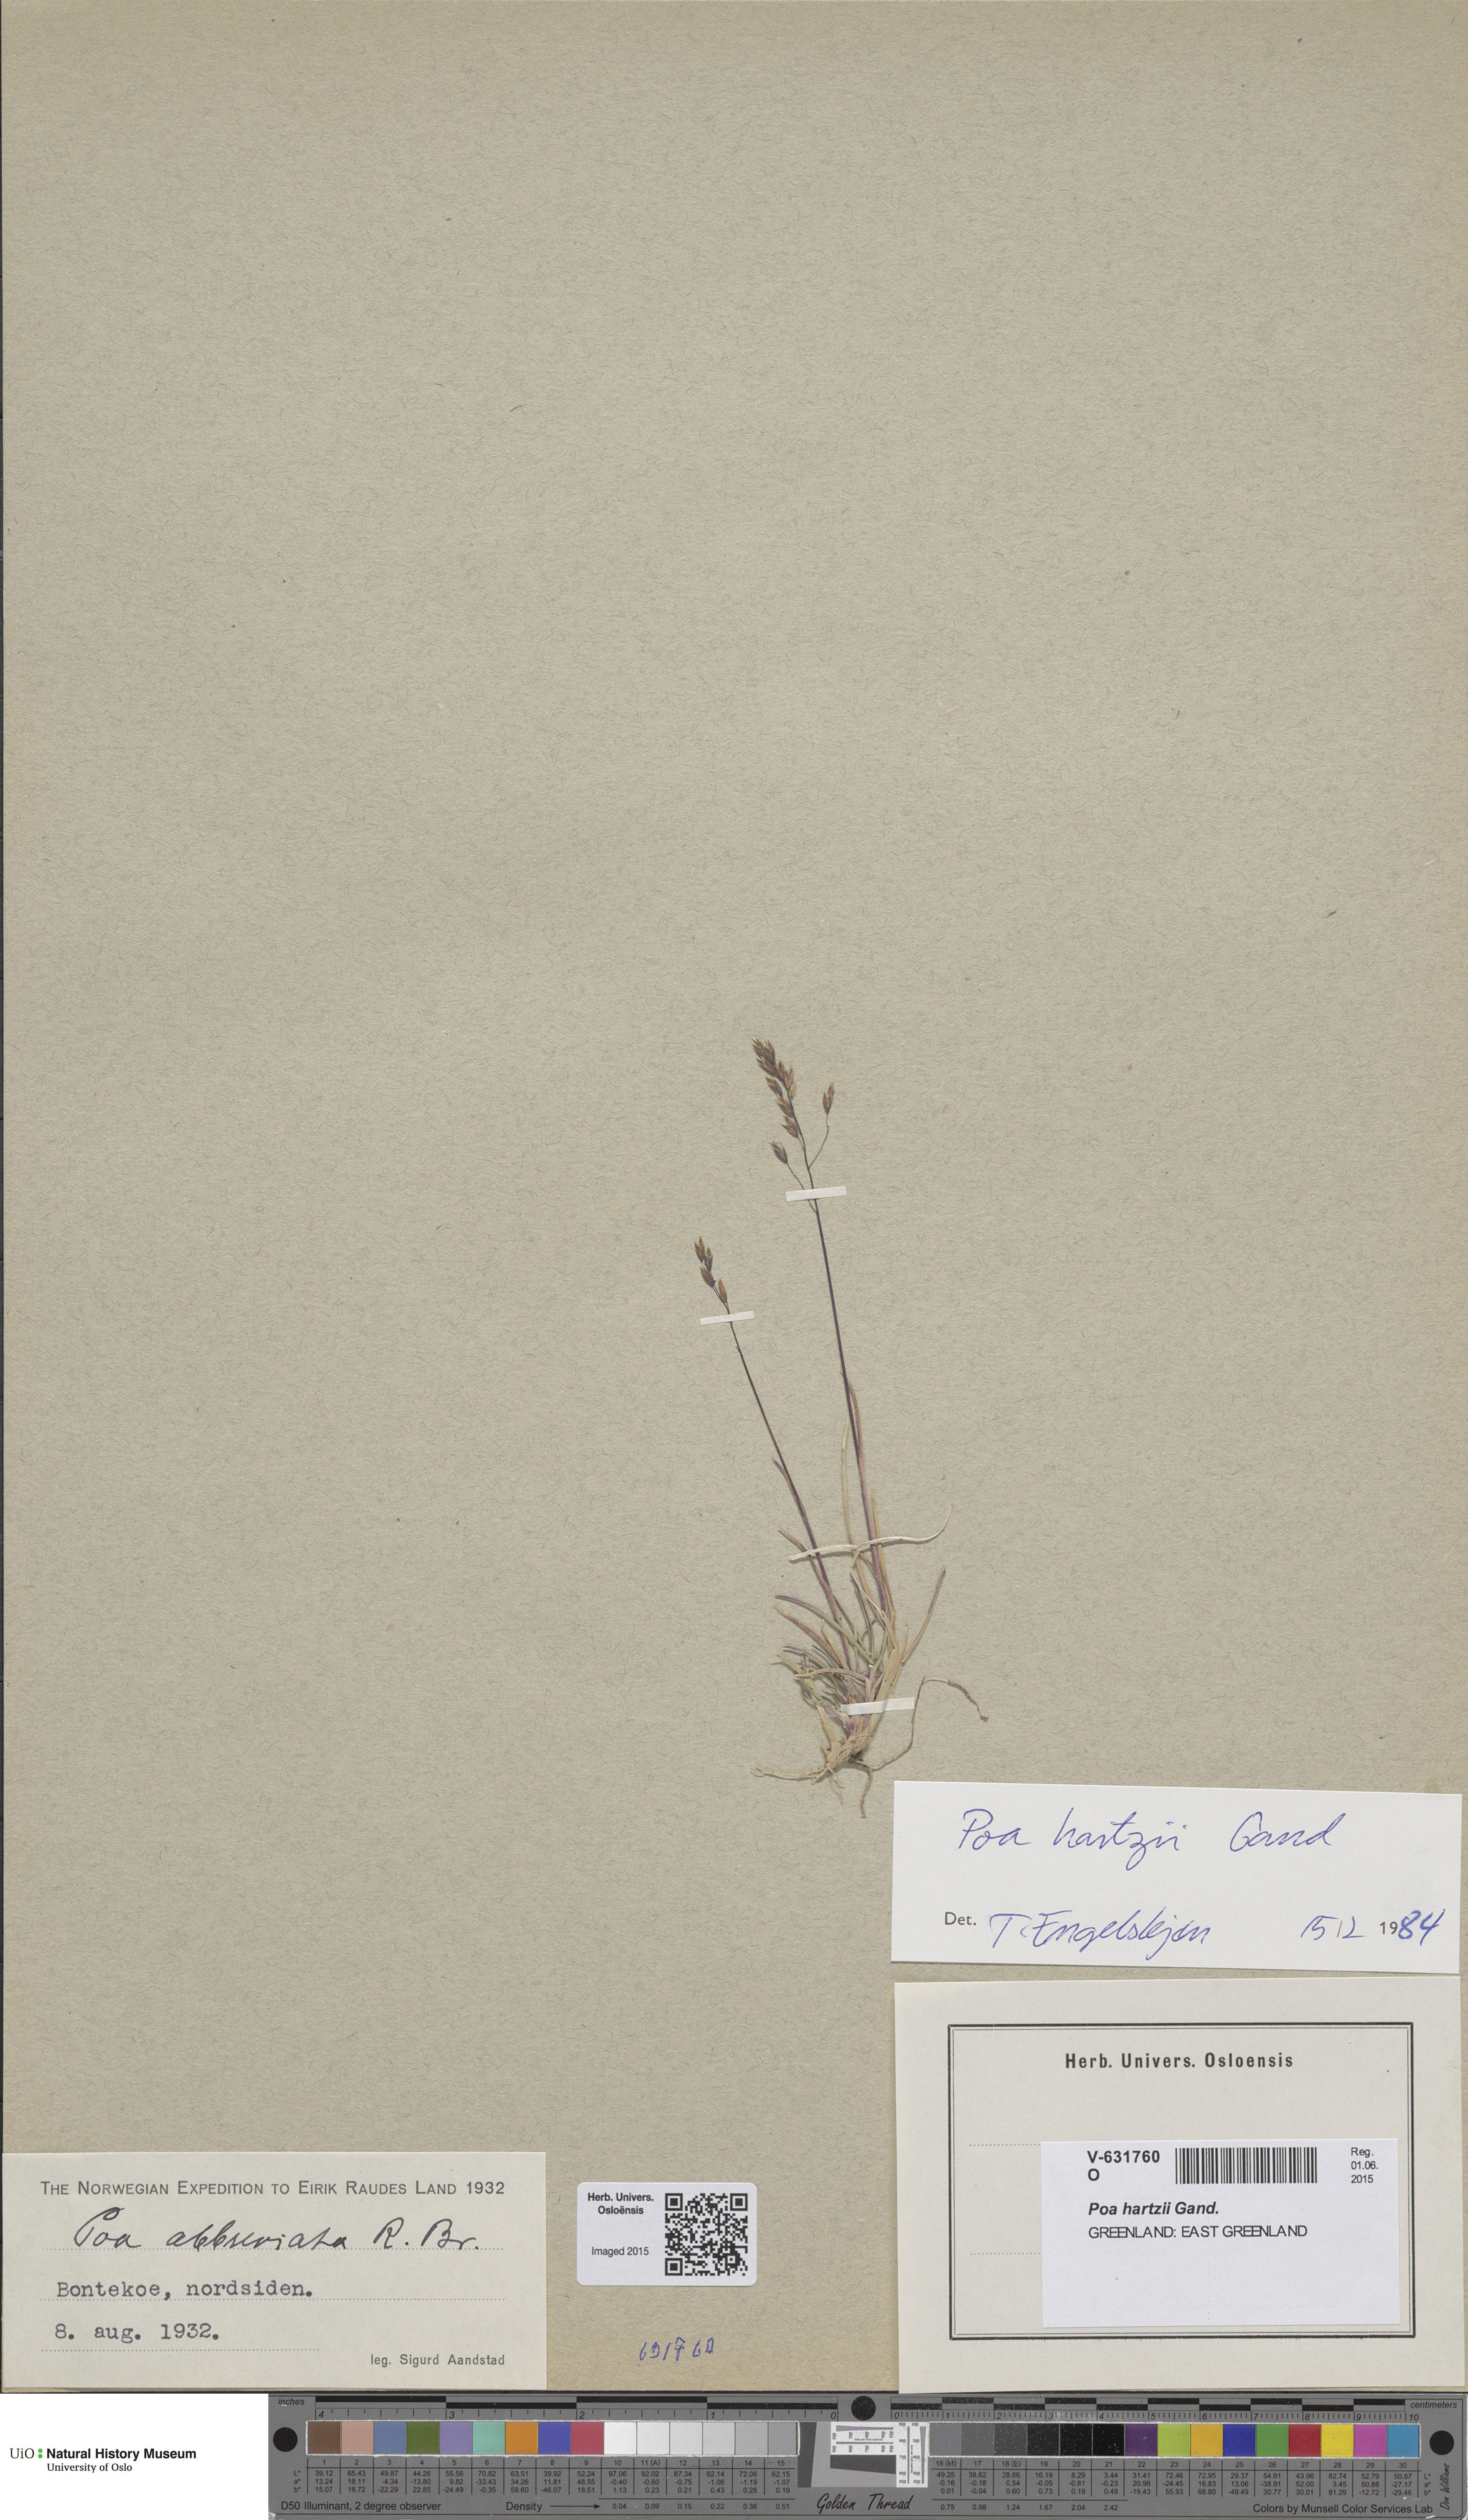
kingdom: Plantae
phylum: Tracheophyta
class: Liliopsida
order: Poales
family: Poaceae
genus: Poa
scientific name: Poa hartzii
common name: Hartz's bluegrass
